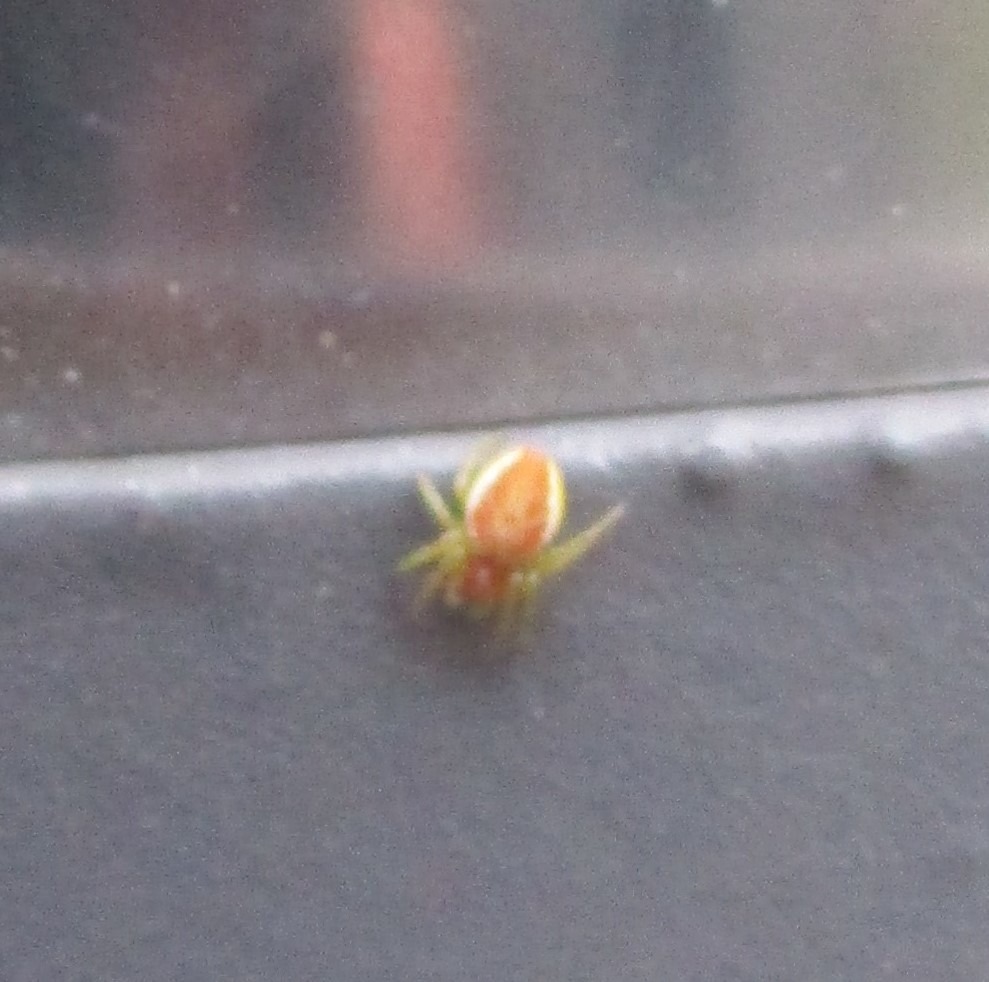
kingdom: Animalia
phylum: Arthropoda
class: Arachnida
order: Araneae
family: Araneidae
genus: Araniella
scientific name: Araniella
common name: Agurkeedderkopslægten
